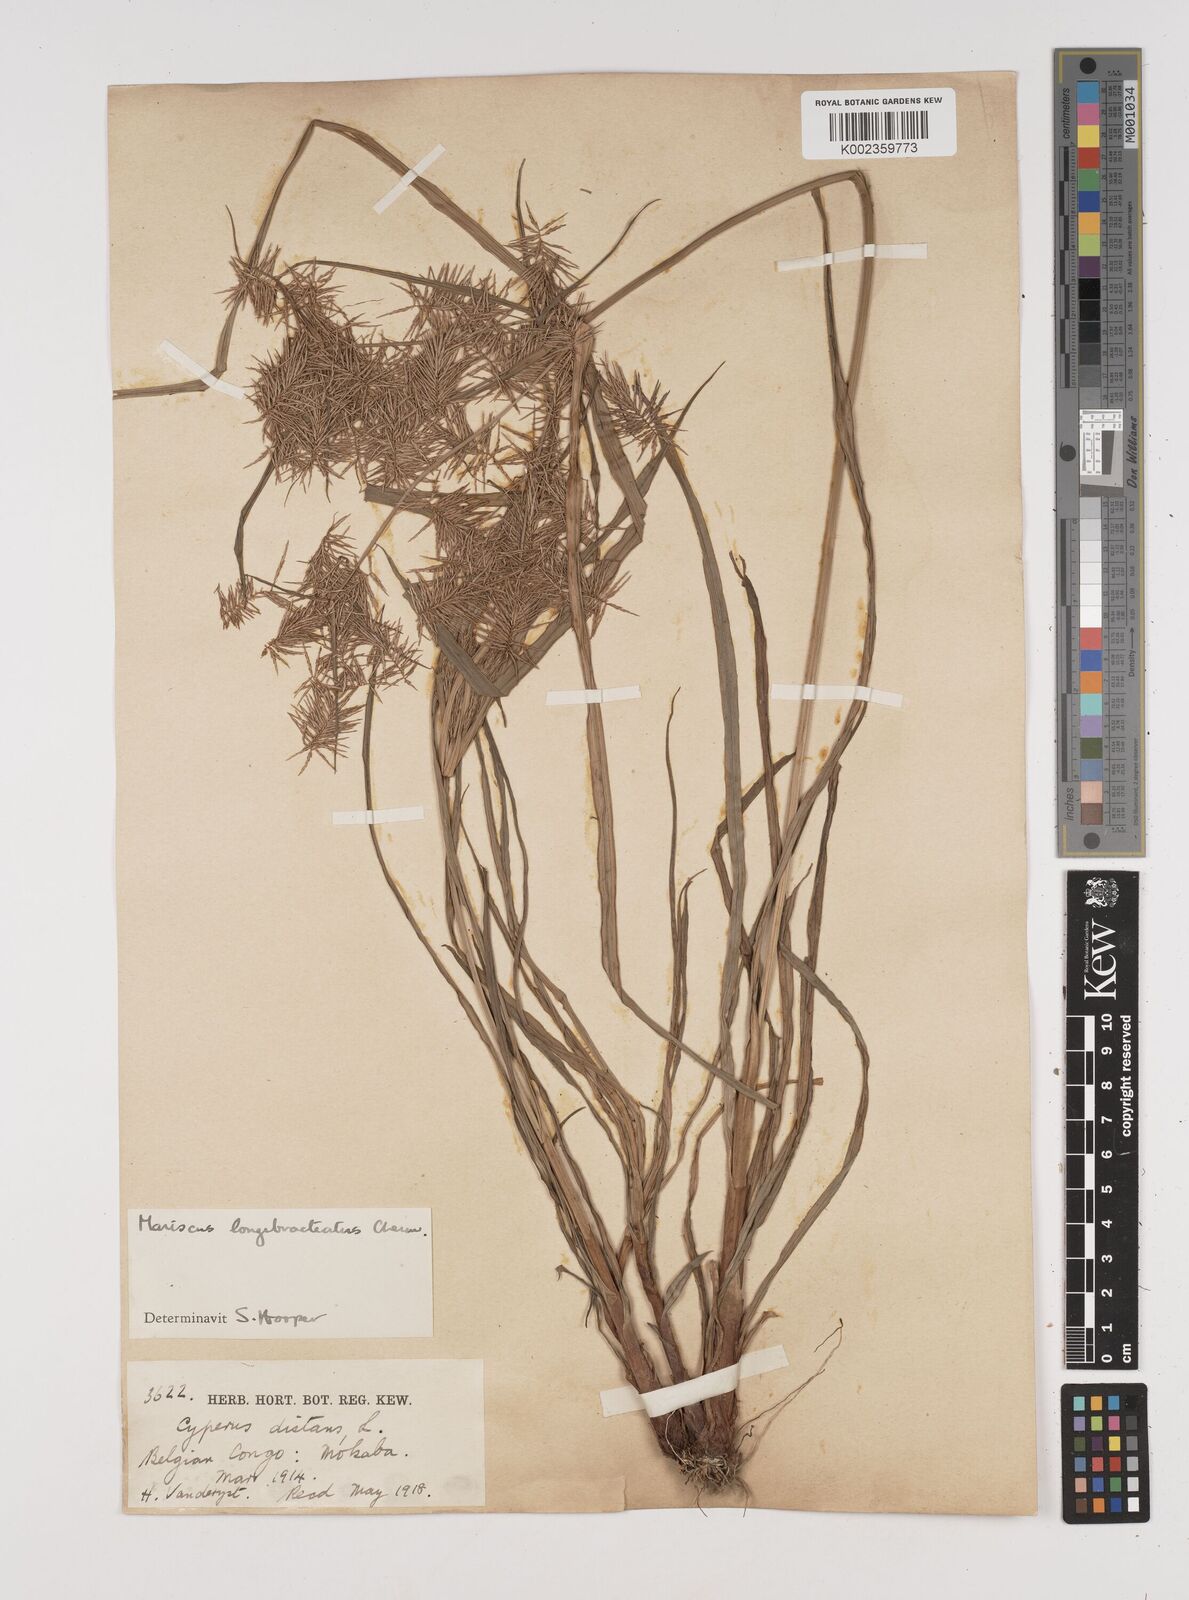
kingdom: Plantae
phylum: Tracheophyta
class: Liliopsida
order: Poales
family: Cyperaceae
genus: Cyperus
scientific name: Cyperus distans
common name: Slender cyperus
